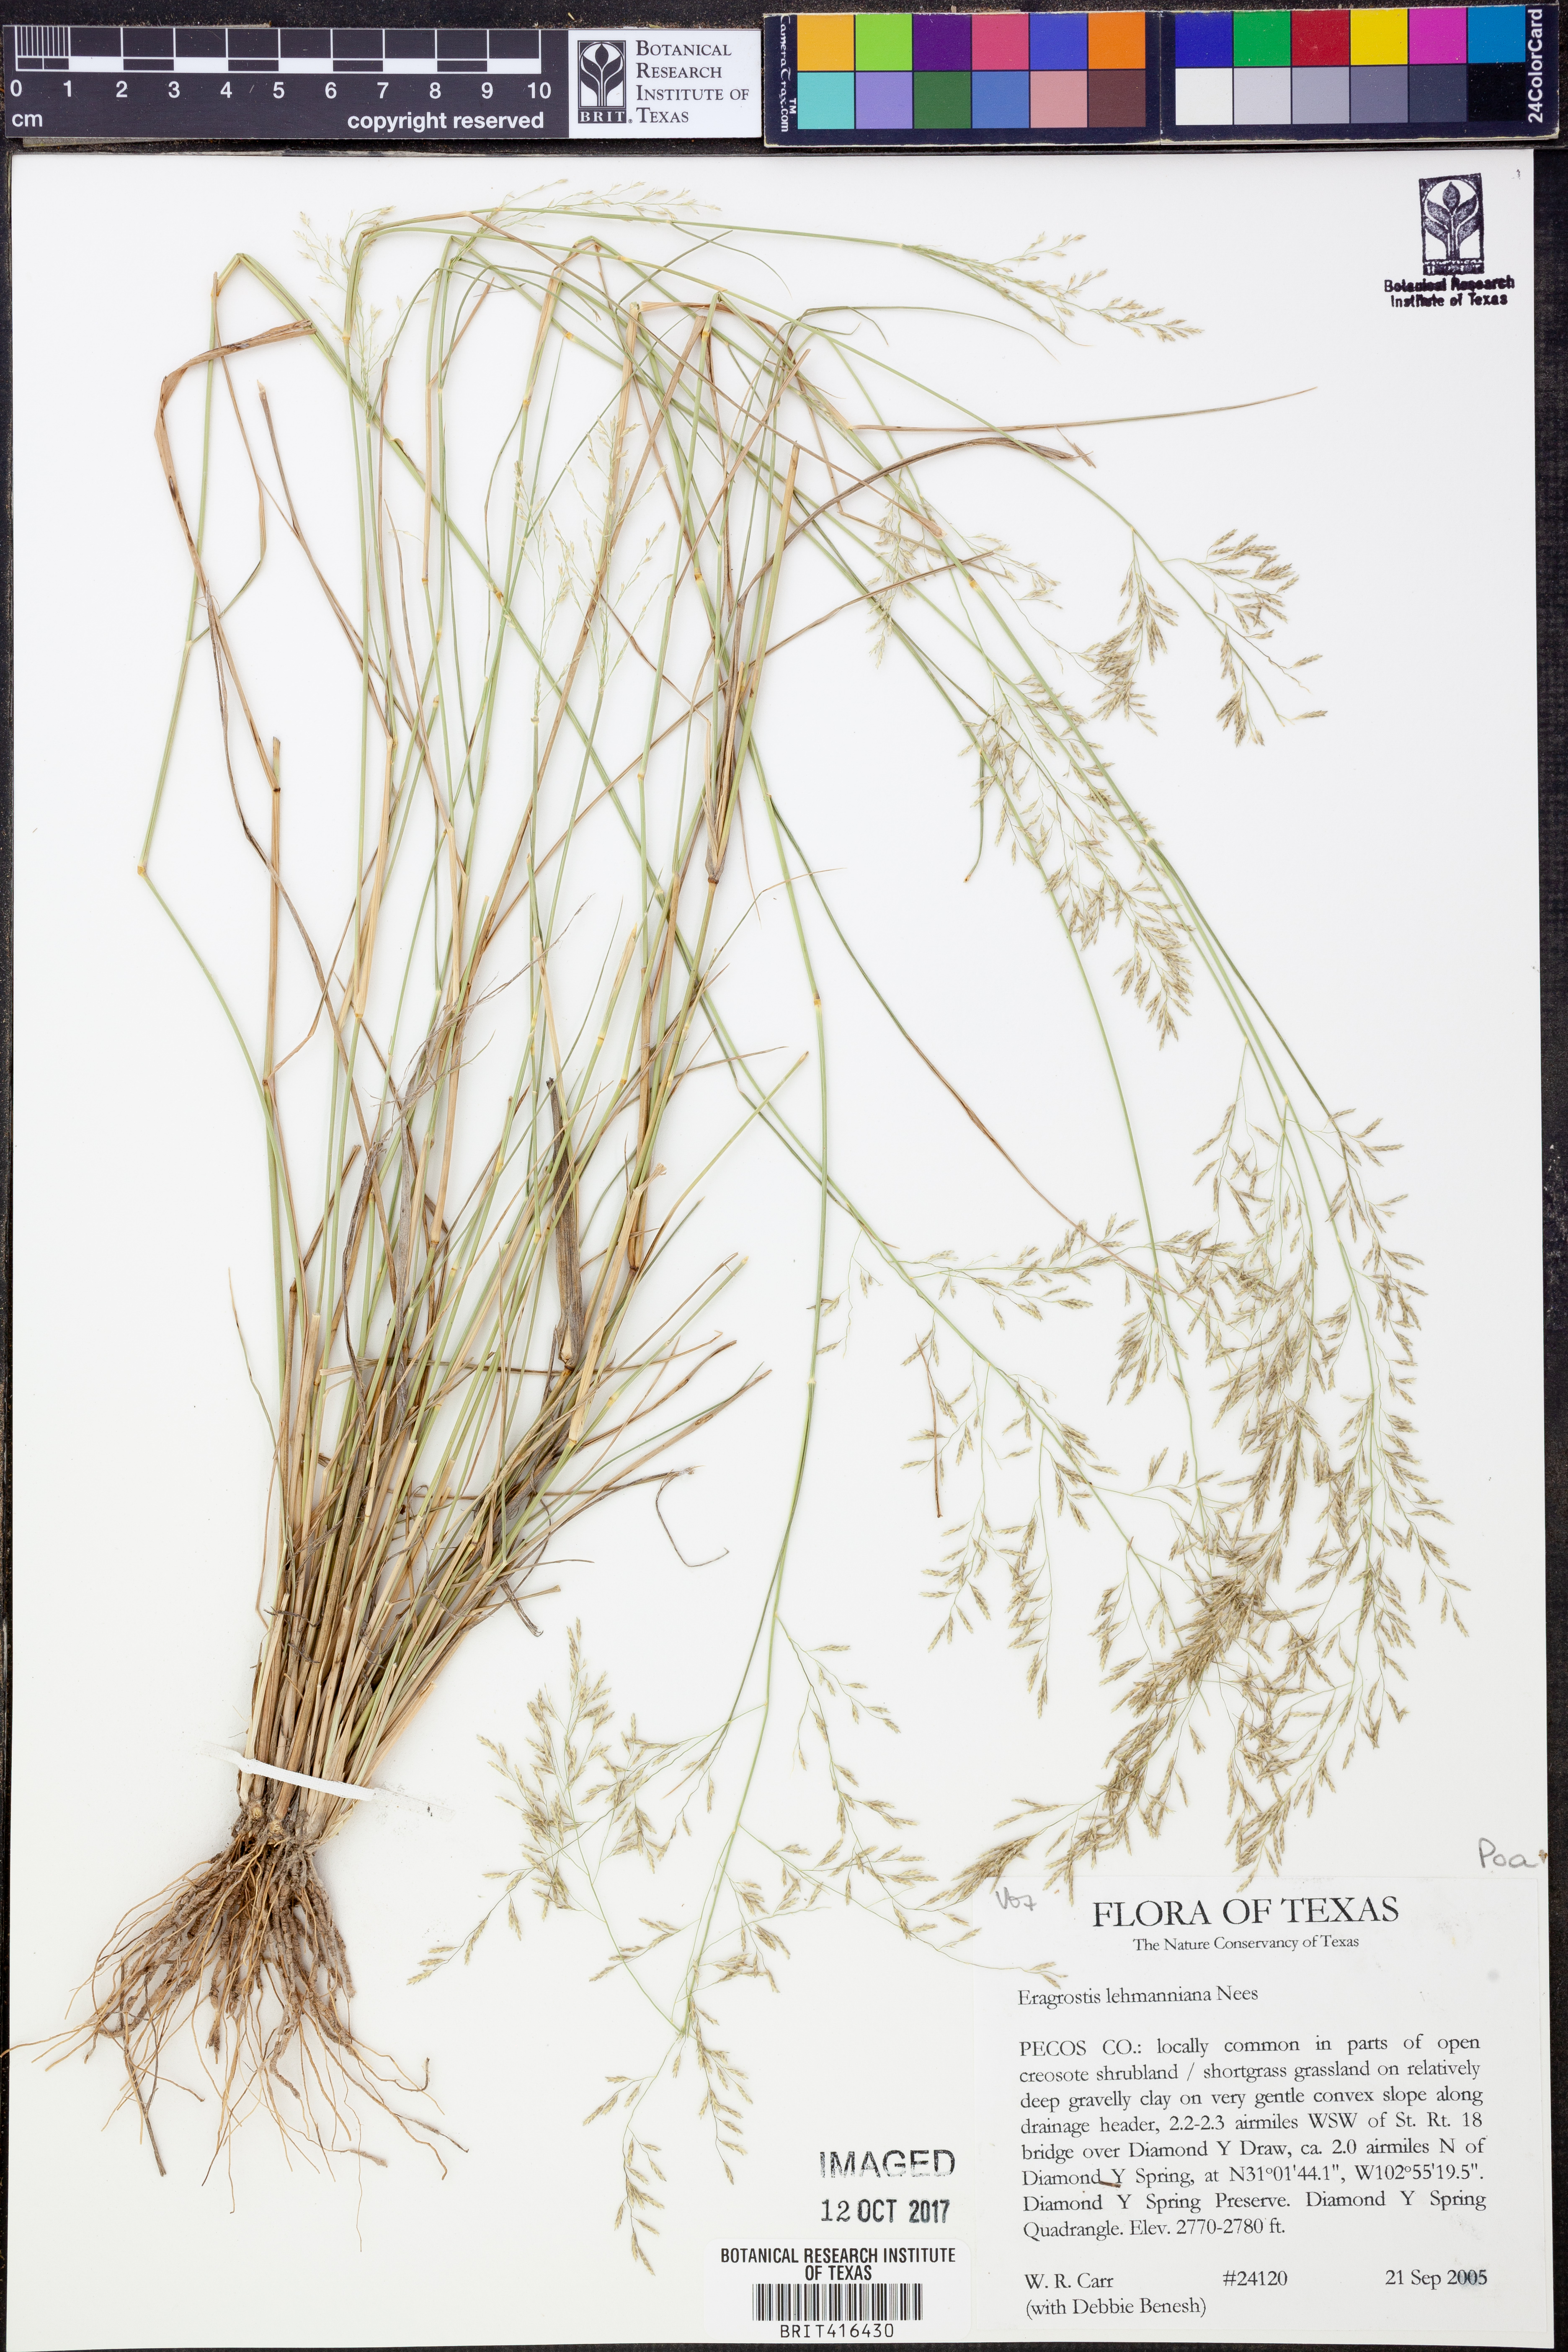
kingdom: Plantae
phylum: Tracheophyta
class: Liliopsida
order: Poales
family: Poaceae
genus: Eragrostis
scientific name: Eragrostis lehmanniana
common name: Lehmann lovegrass
